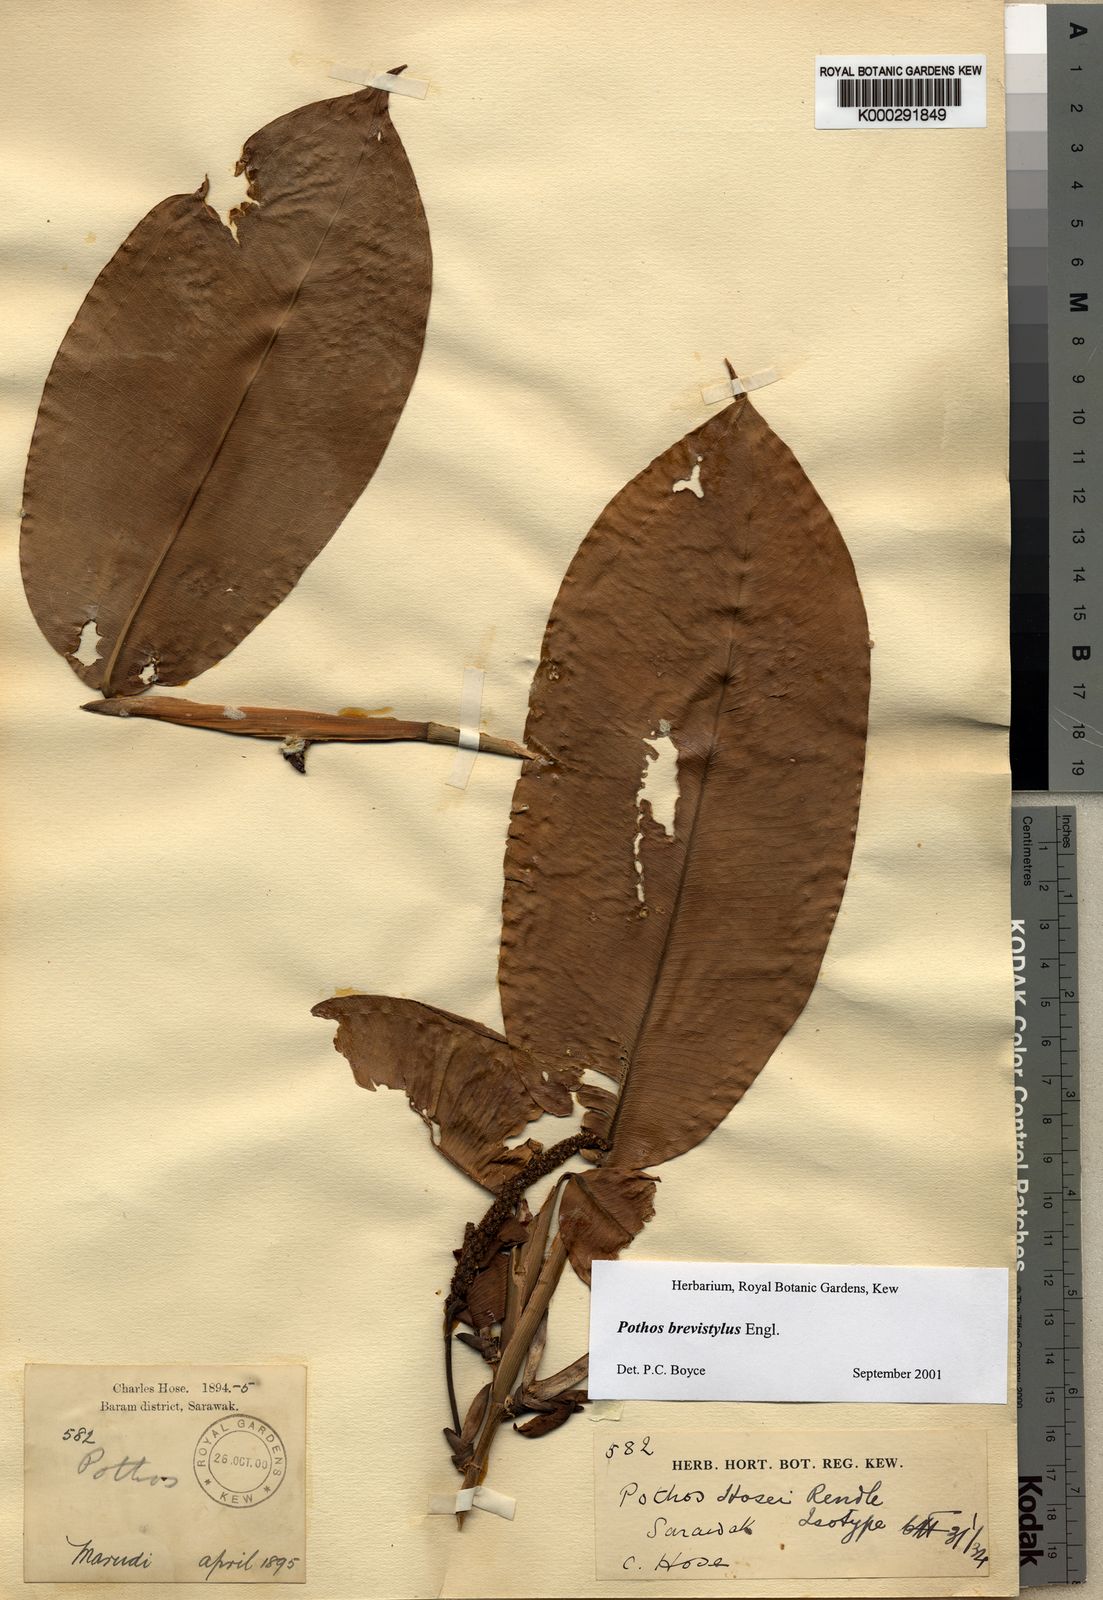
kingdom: Plantae
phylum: Tracheophyta
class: Liliopsida
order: Alismatales
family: Araceae
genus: Pothos
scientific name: Pothos brevistylus
